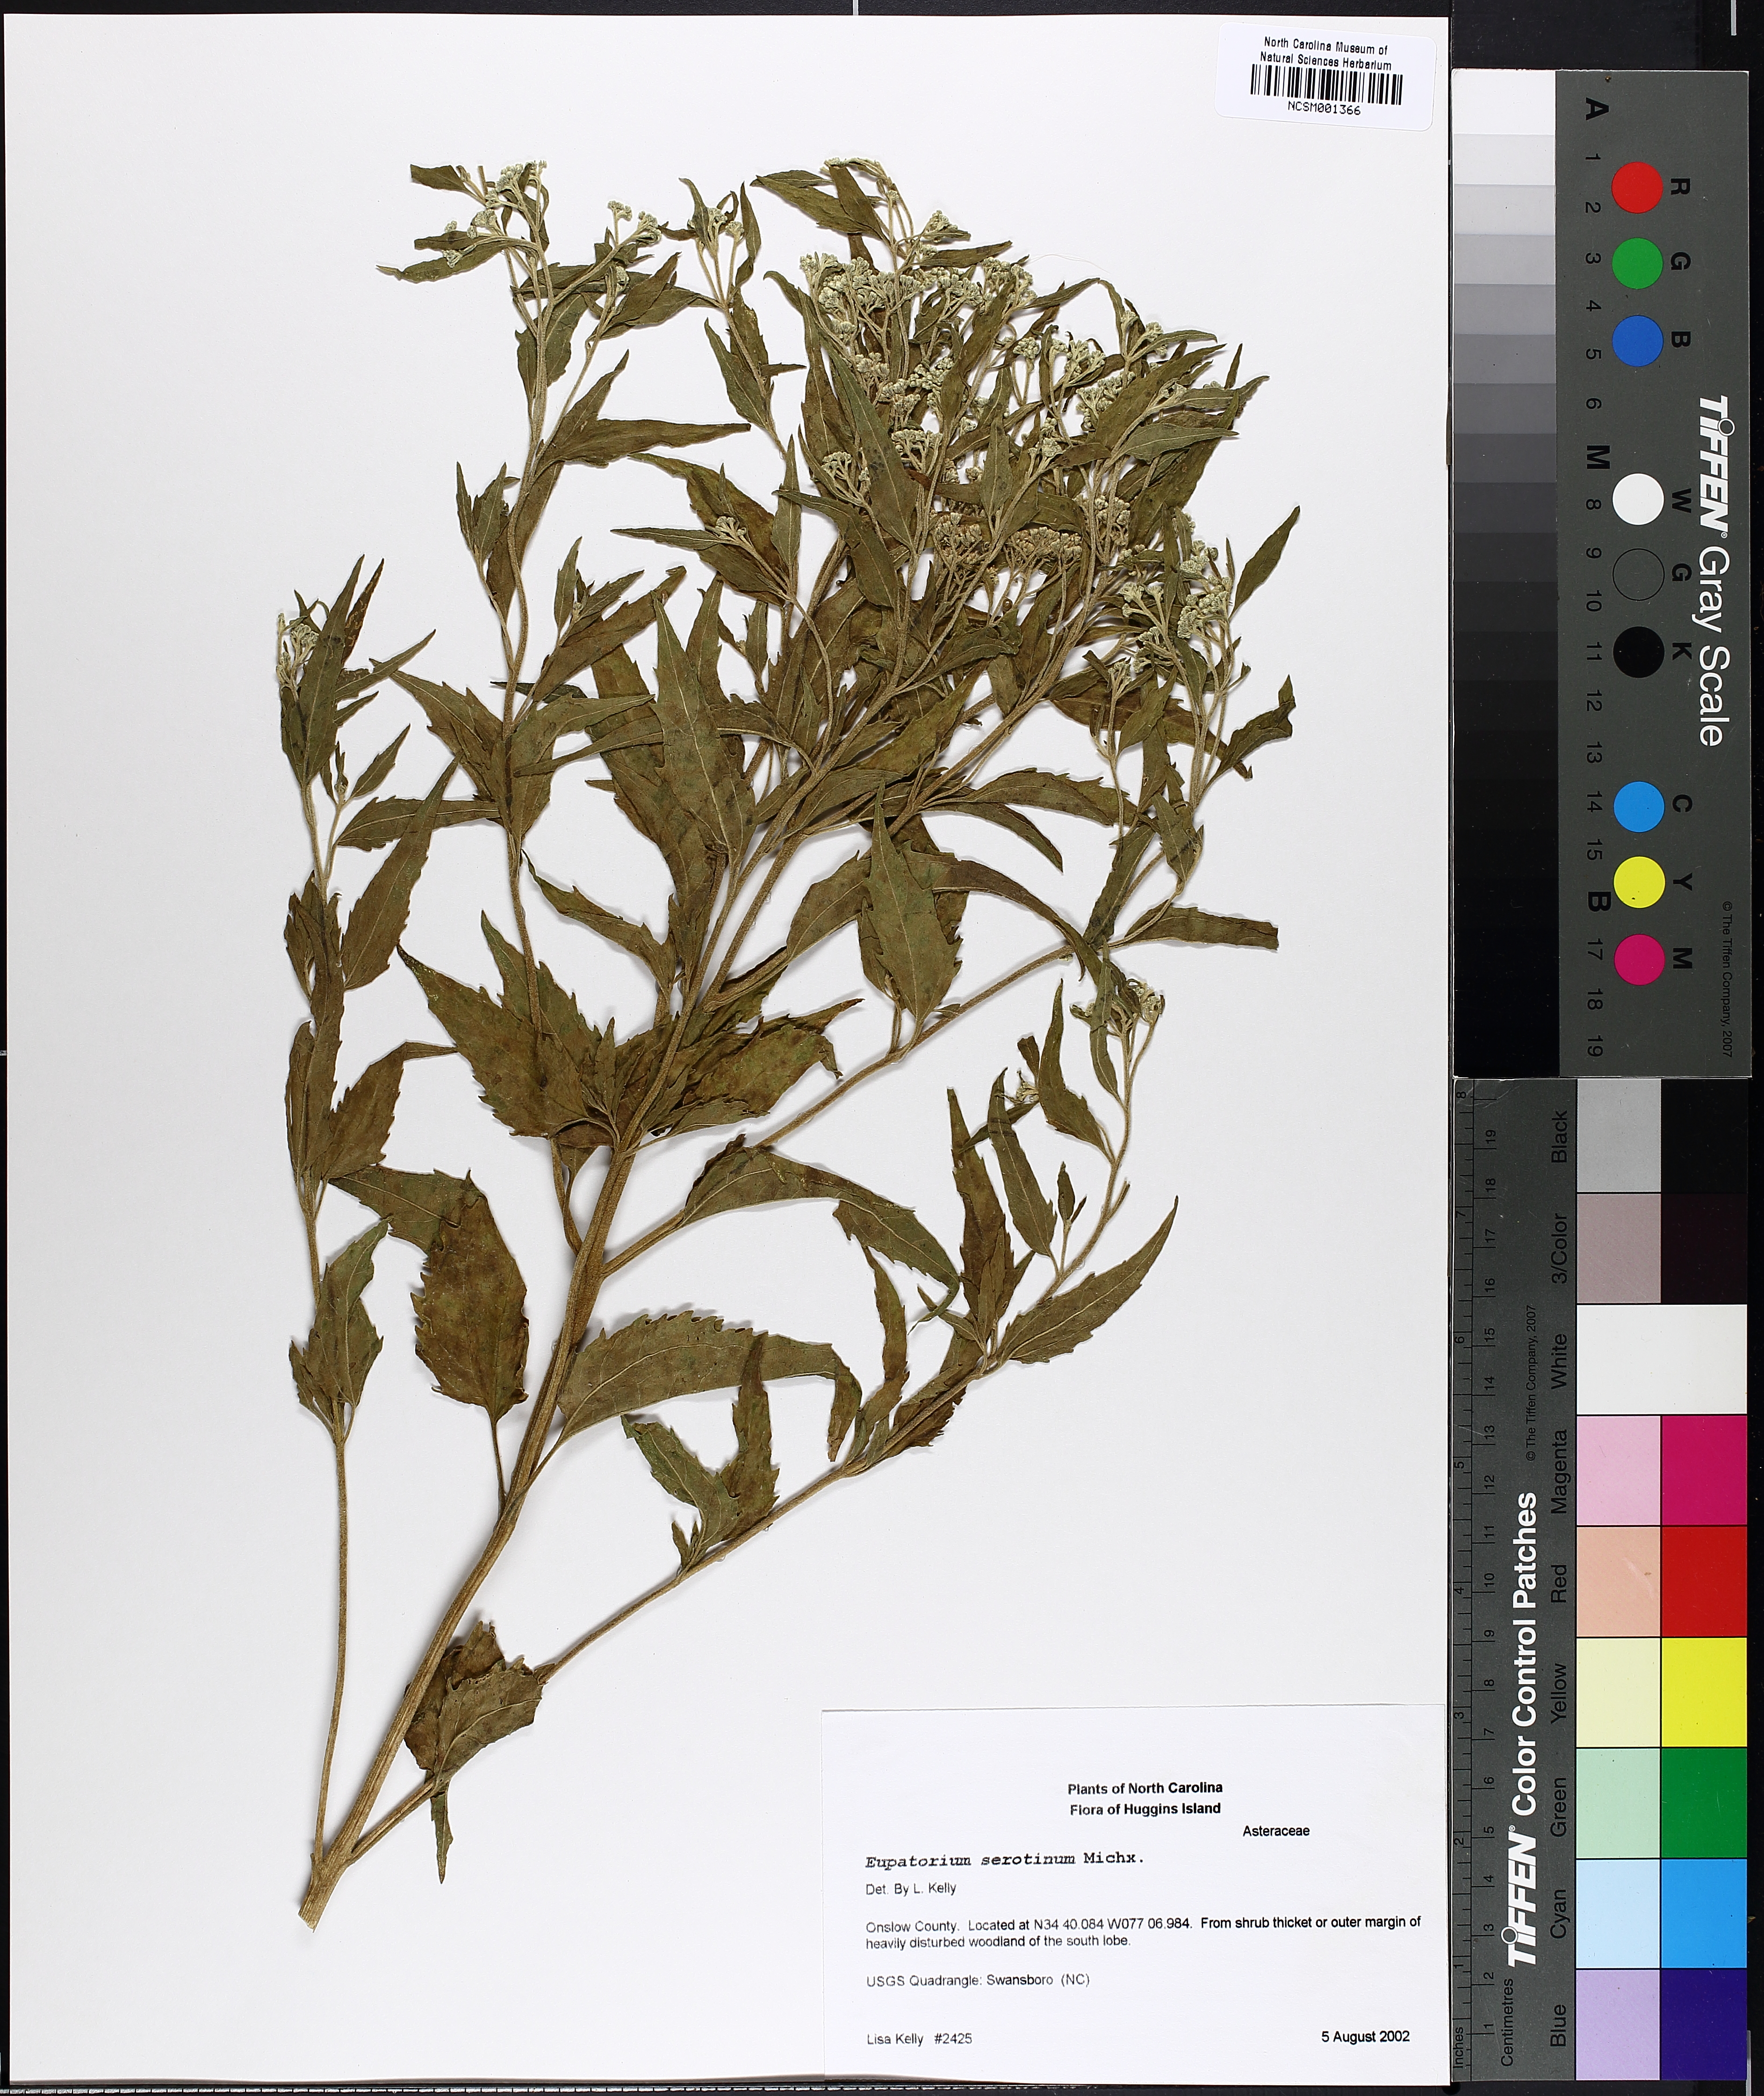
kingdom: Plantae
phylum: Tracheophyta
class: Magnoliopsida
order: Asterales
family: Asteraceae
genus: Eupatorium
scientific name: Eupatorium serotinum
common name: Late boneset
